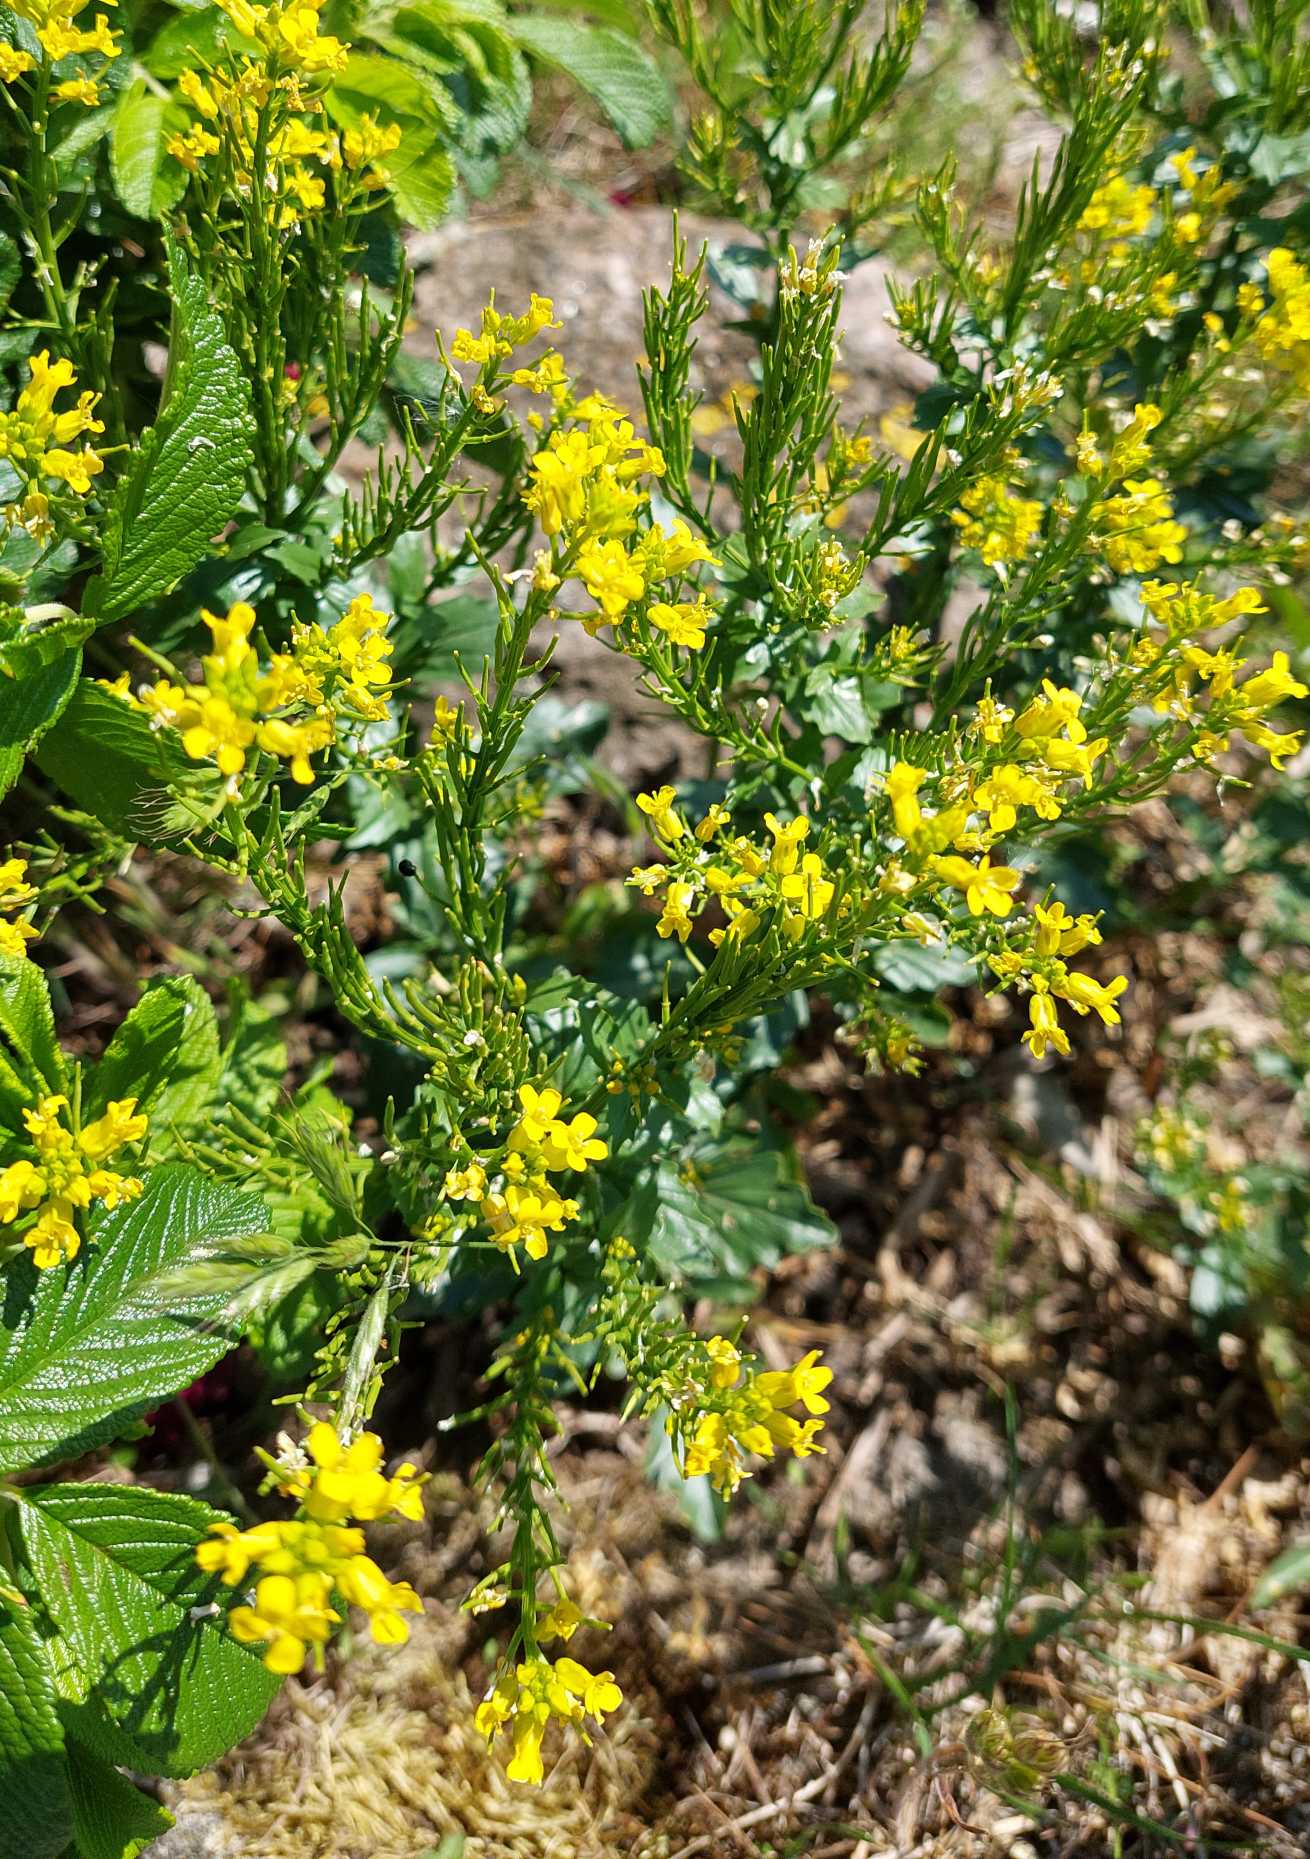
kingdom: Plantae
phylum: Tracheophyta
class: Magnoliopsida
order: Brassicales
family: Brassicaceae
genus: Barbarea
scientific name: Barbarea vulgaris
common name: Almindelig vinterkarse
